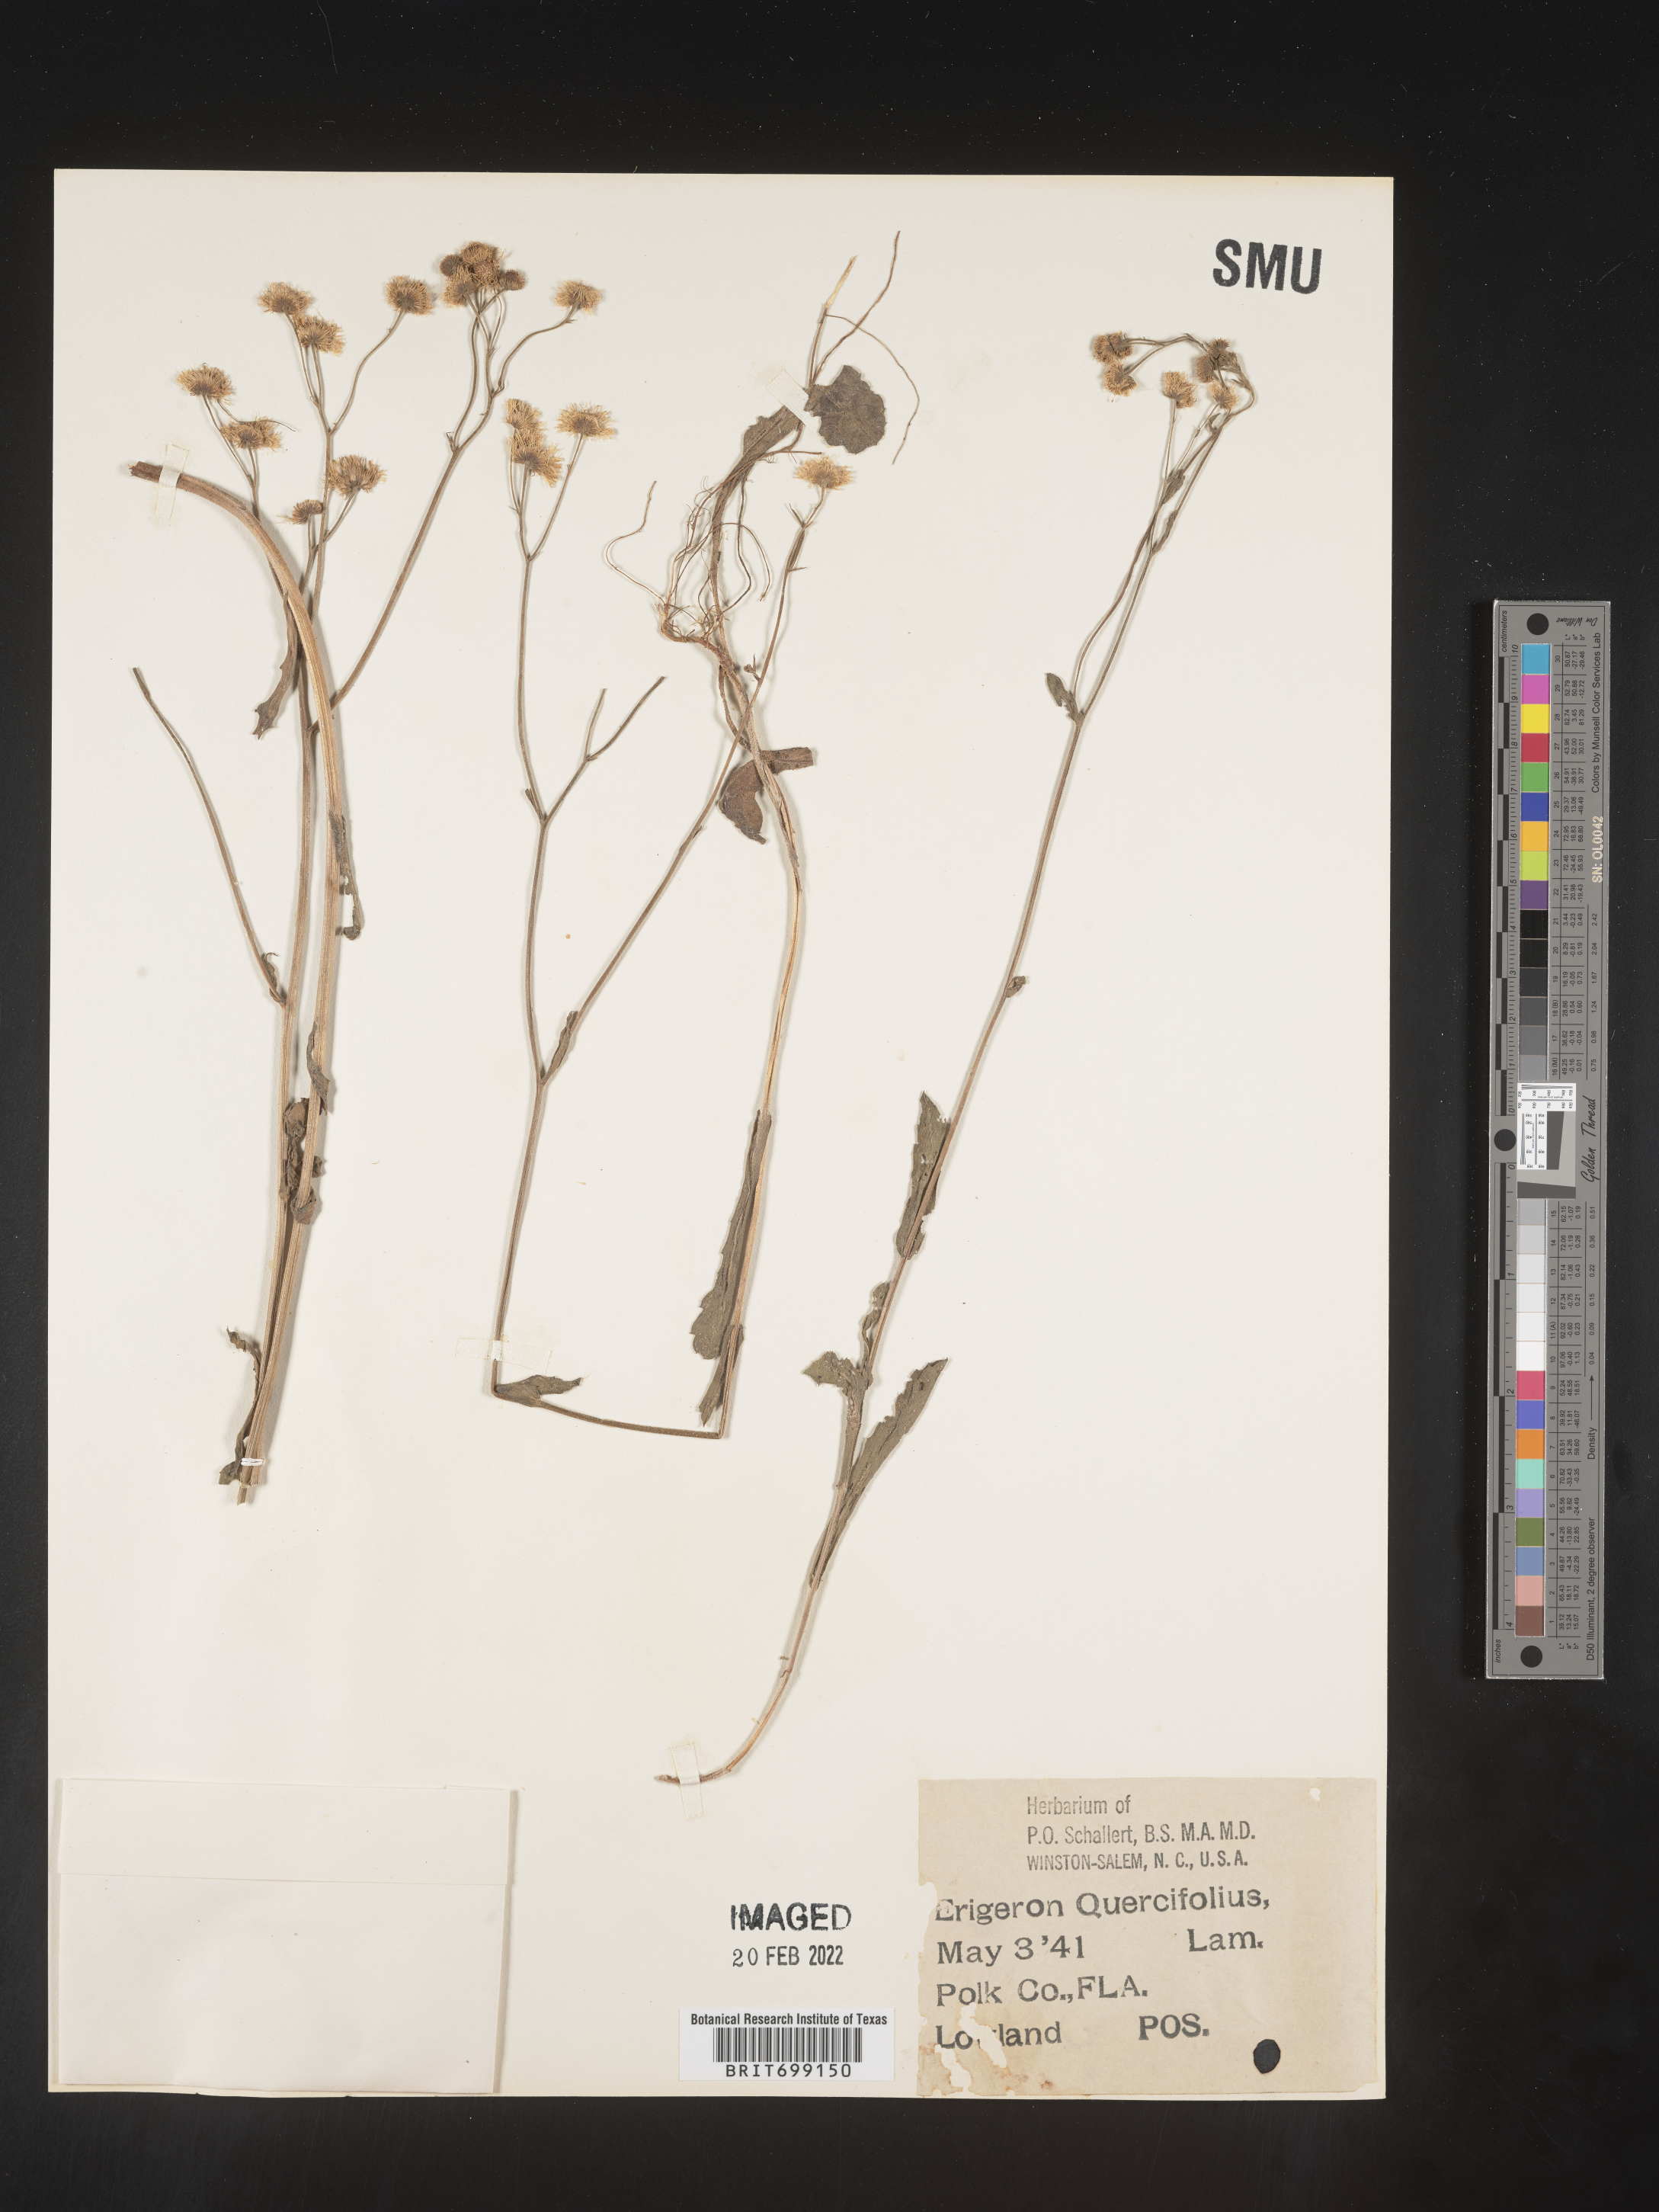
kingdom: Plantae
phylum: Tracheophyta
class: Magnoliopsida
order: Asterales
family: Asteraceae
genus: Erigeron
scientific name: Erigeron quercifolius
